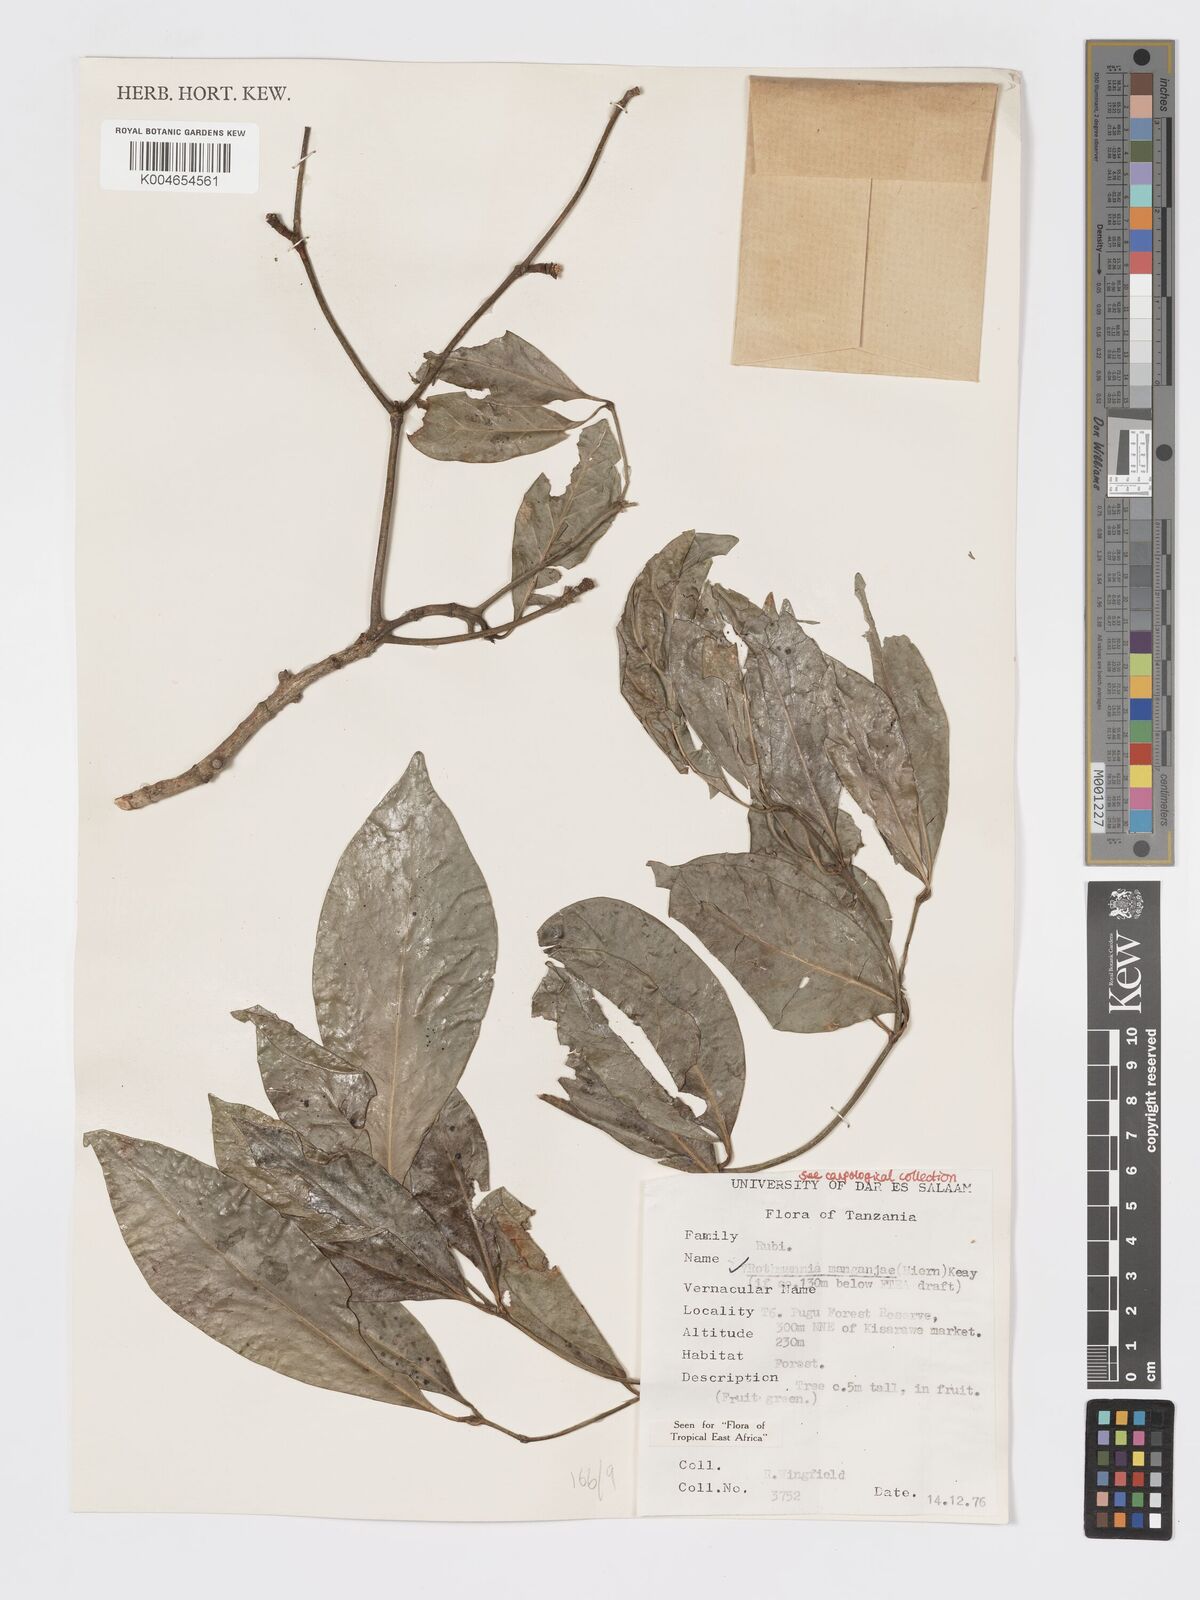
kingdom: Plantae
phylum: Tracheophyta
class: Magnoliopsida
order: Gentianales
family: Rubiaceae
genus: Rothmannia
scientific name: Rothmannia manganjae
